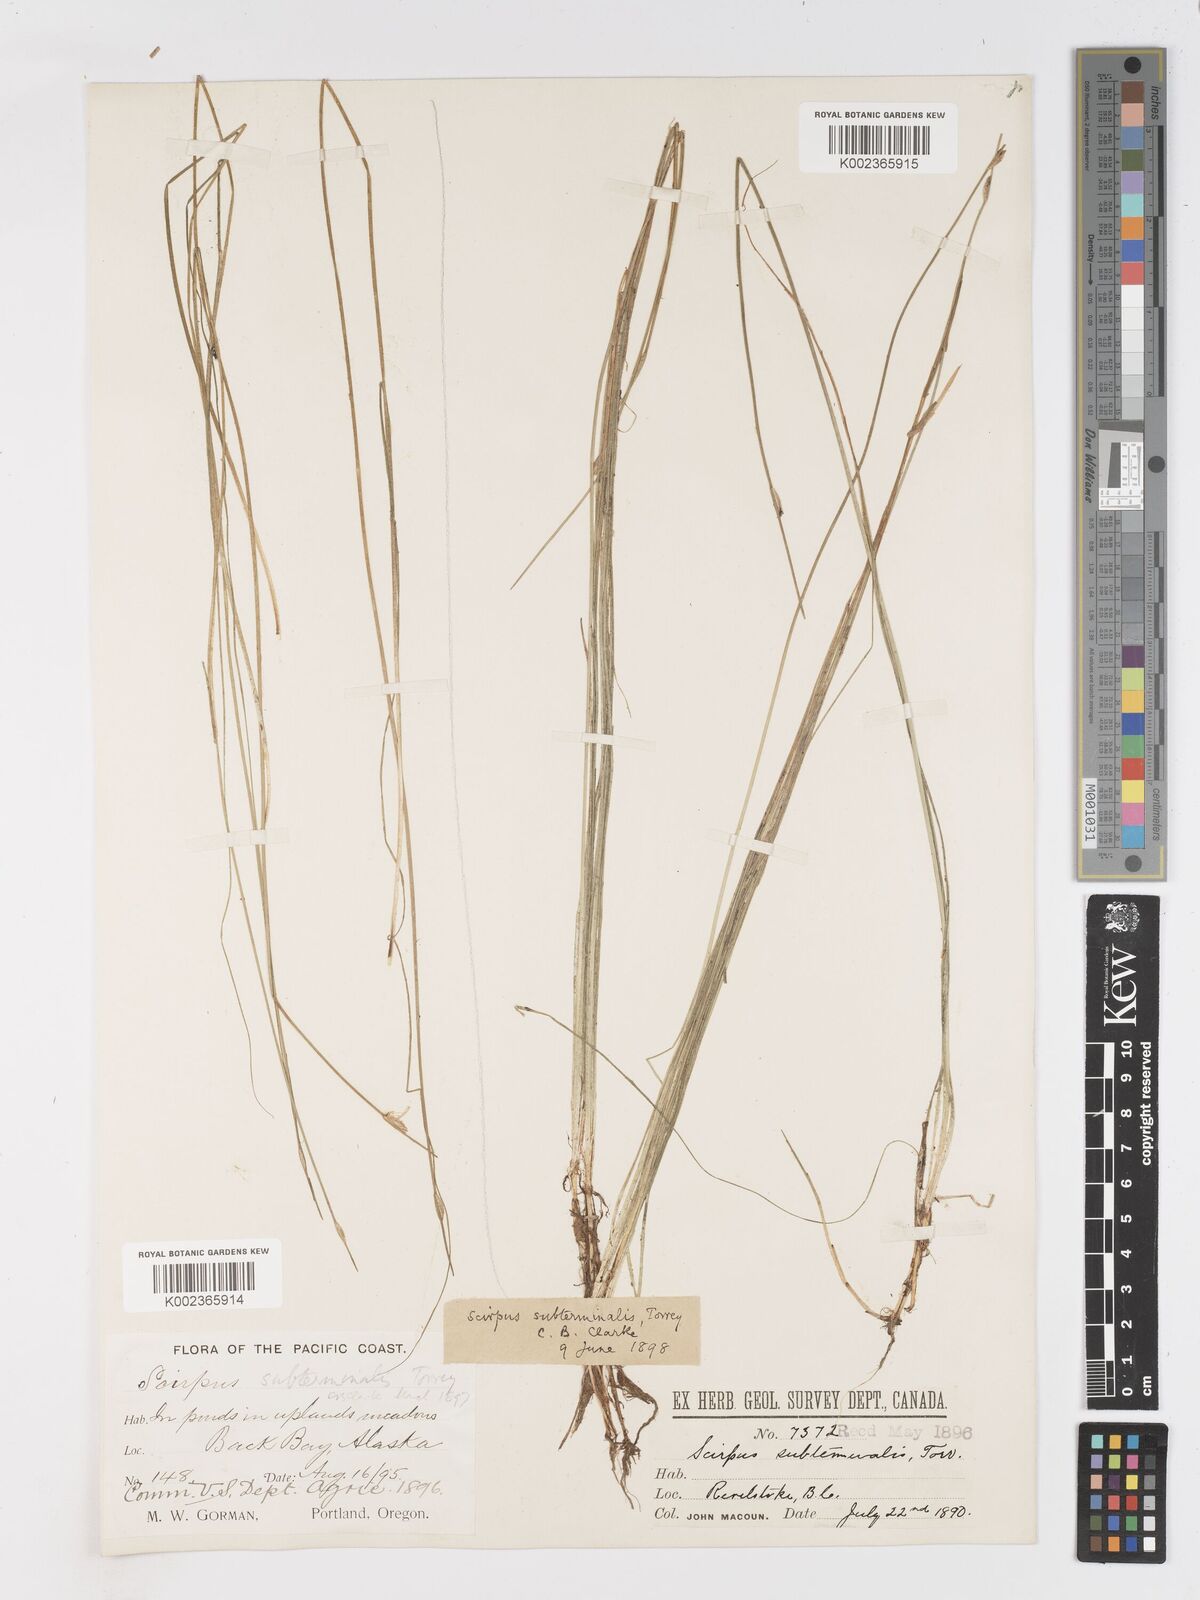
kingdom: Plantae
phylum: Tracheophyta
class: Liliopsida
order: Poales
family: Cyperaceae
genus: Schoenoplectus
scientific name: Schoenoplectus subterminalis
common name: Swaying bulrush
